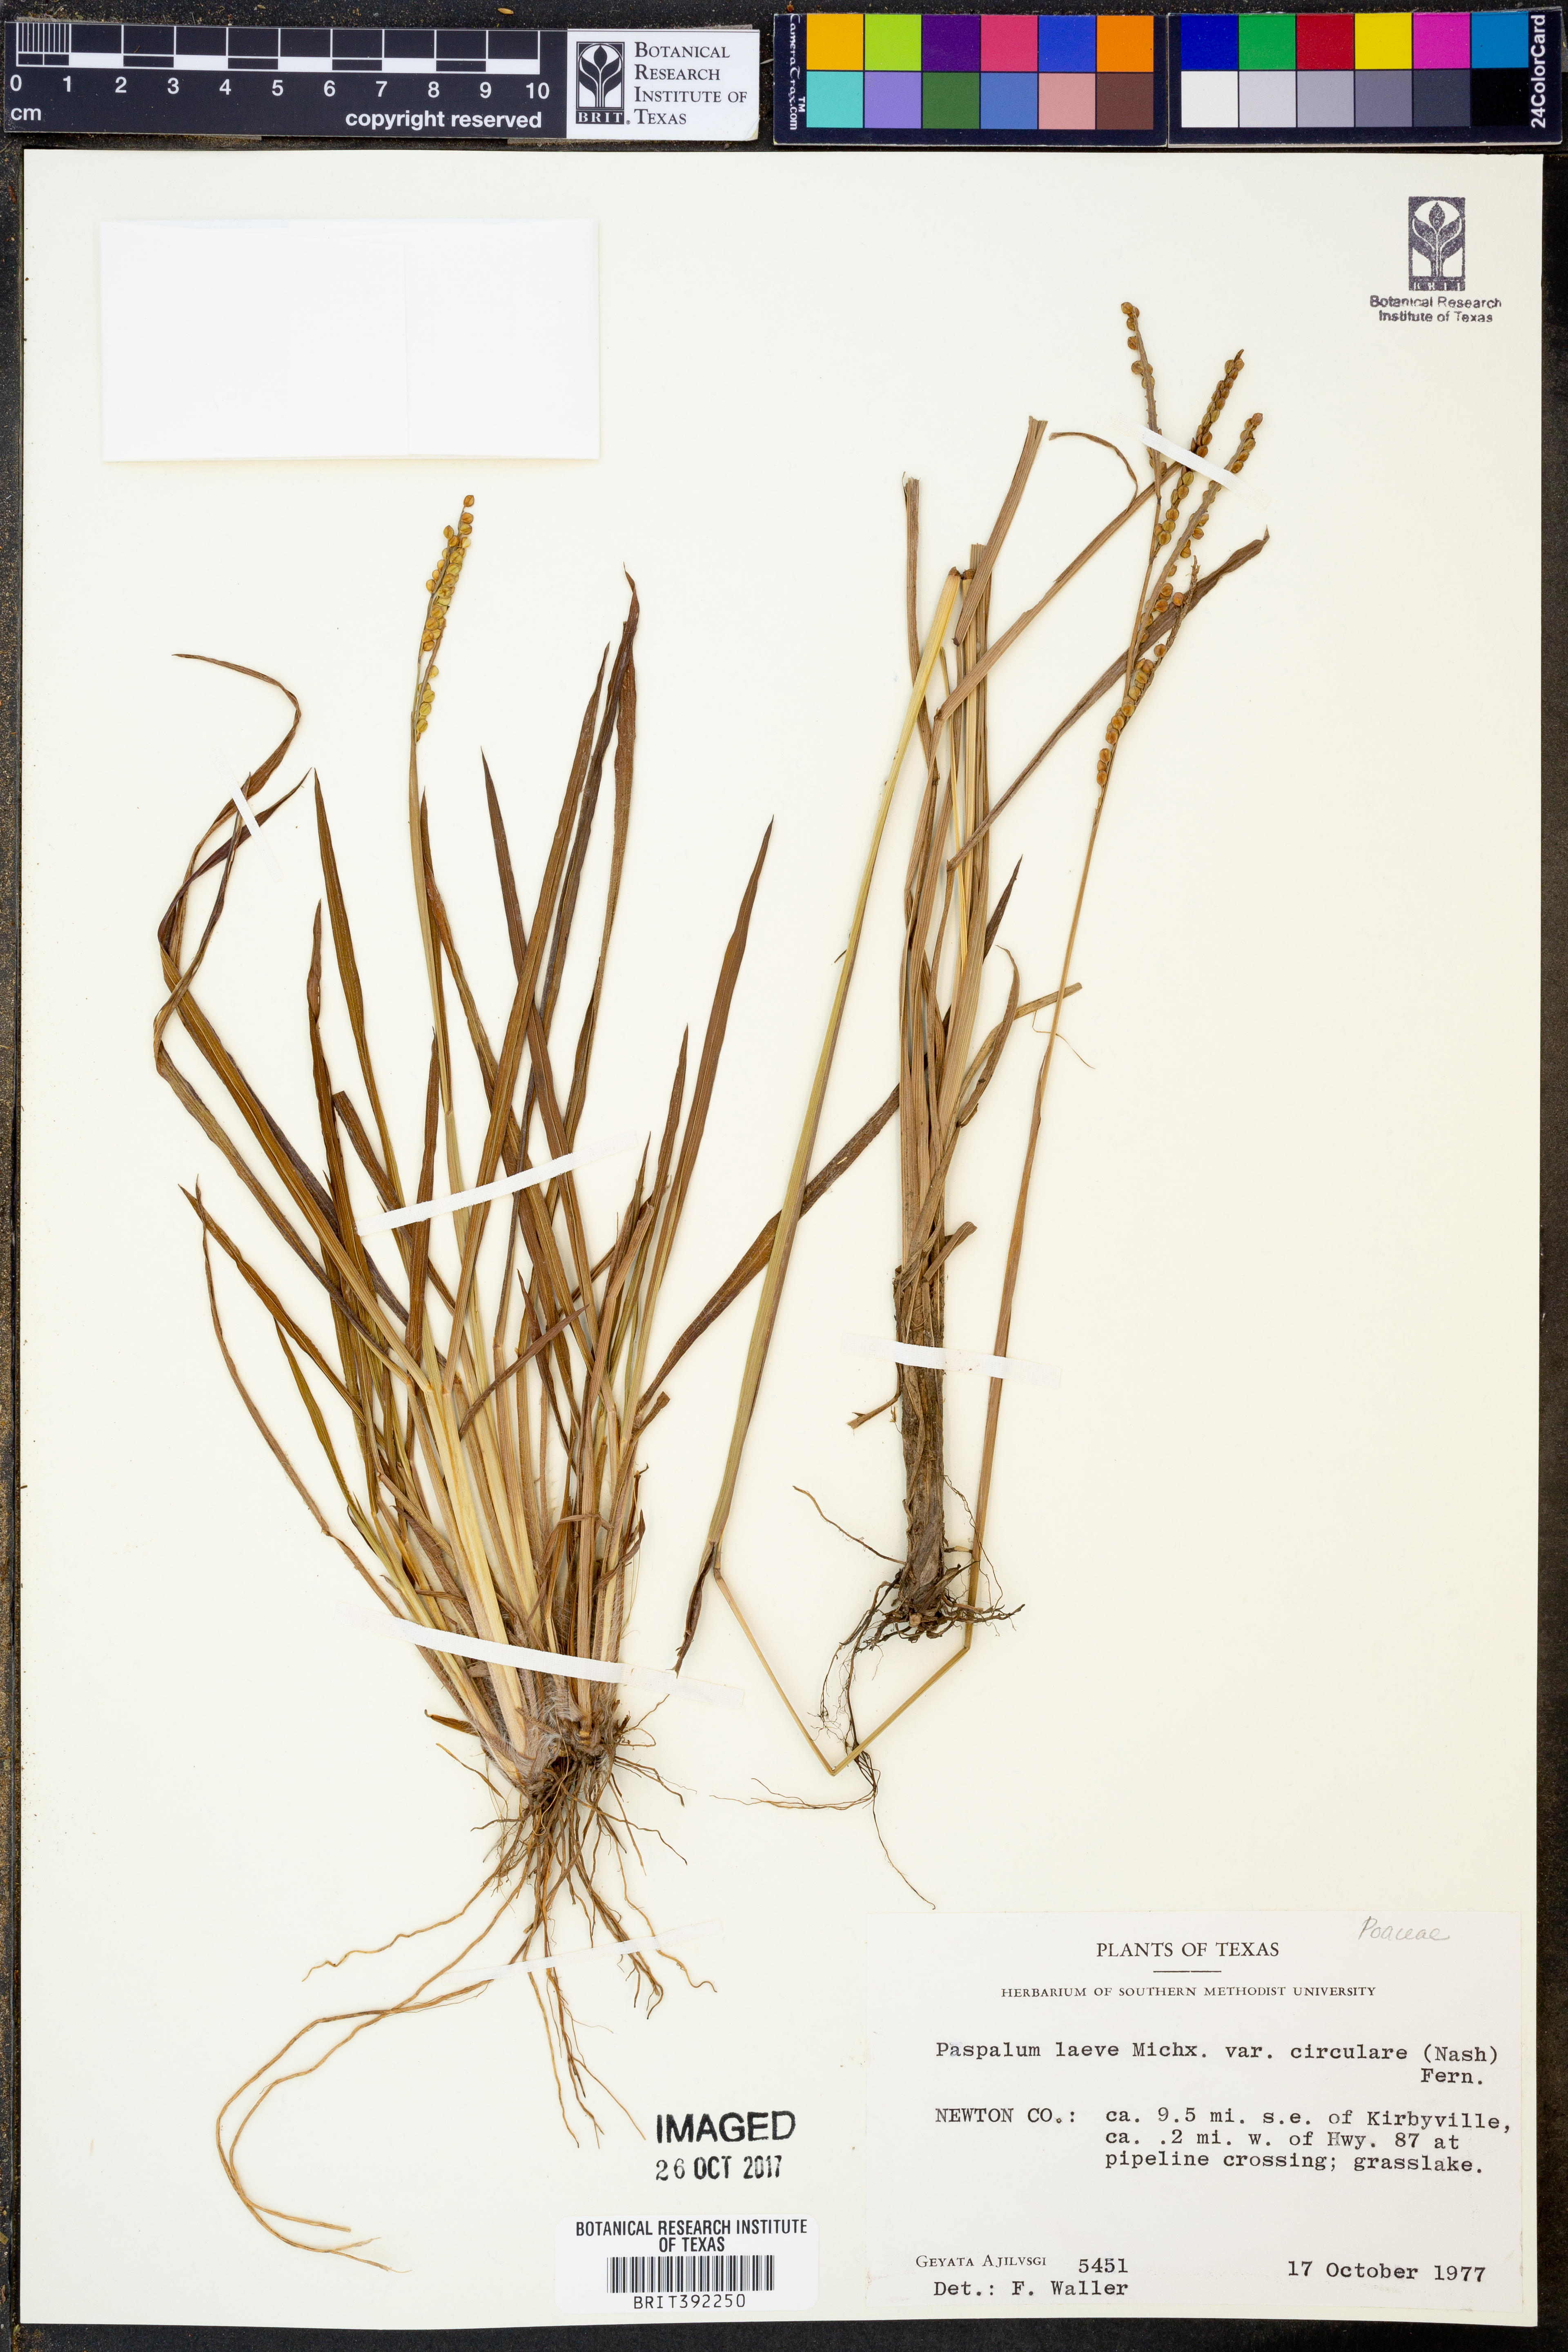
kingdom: Plantae
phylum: Tracheophyta
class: Liliopsida
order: Poales
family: Poaceae
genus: Paspalum
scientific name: Paspalum laeve
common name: Field paspalum
